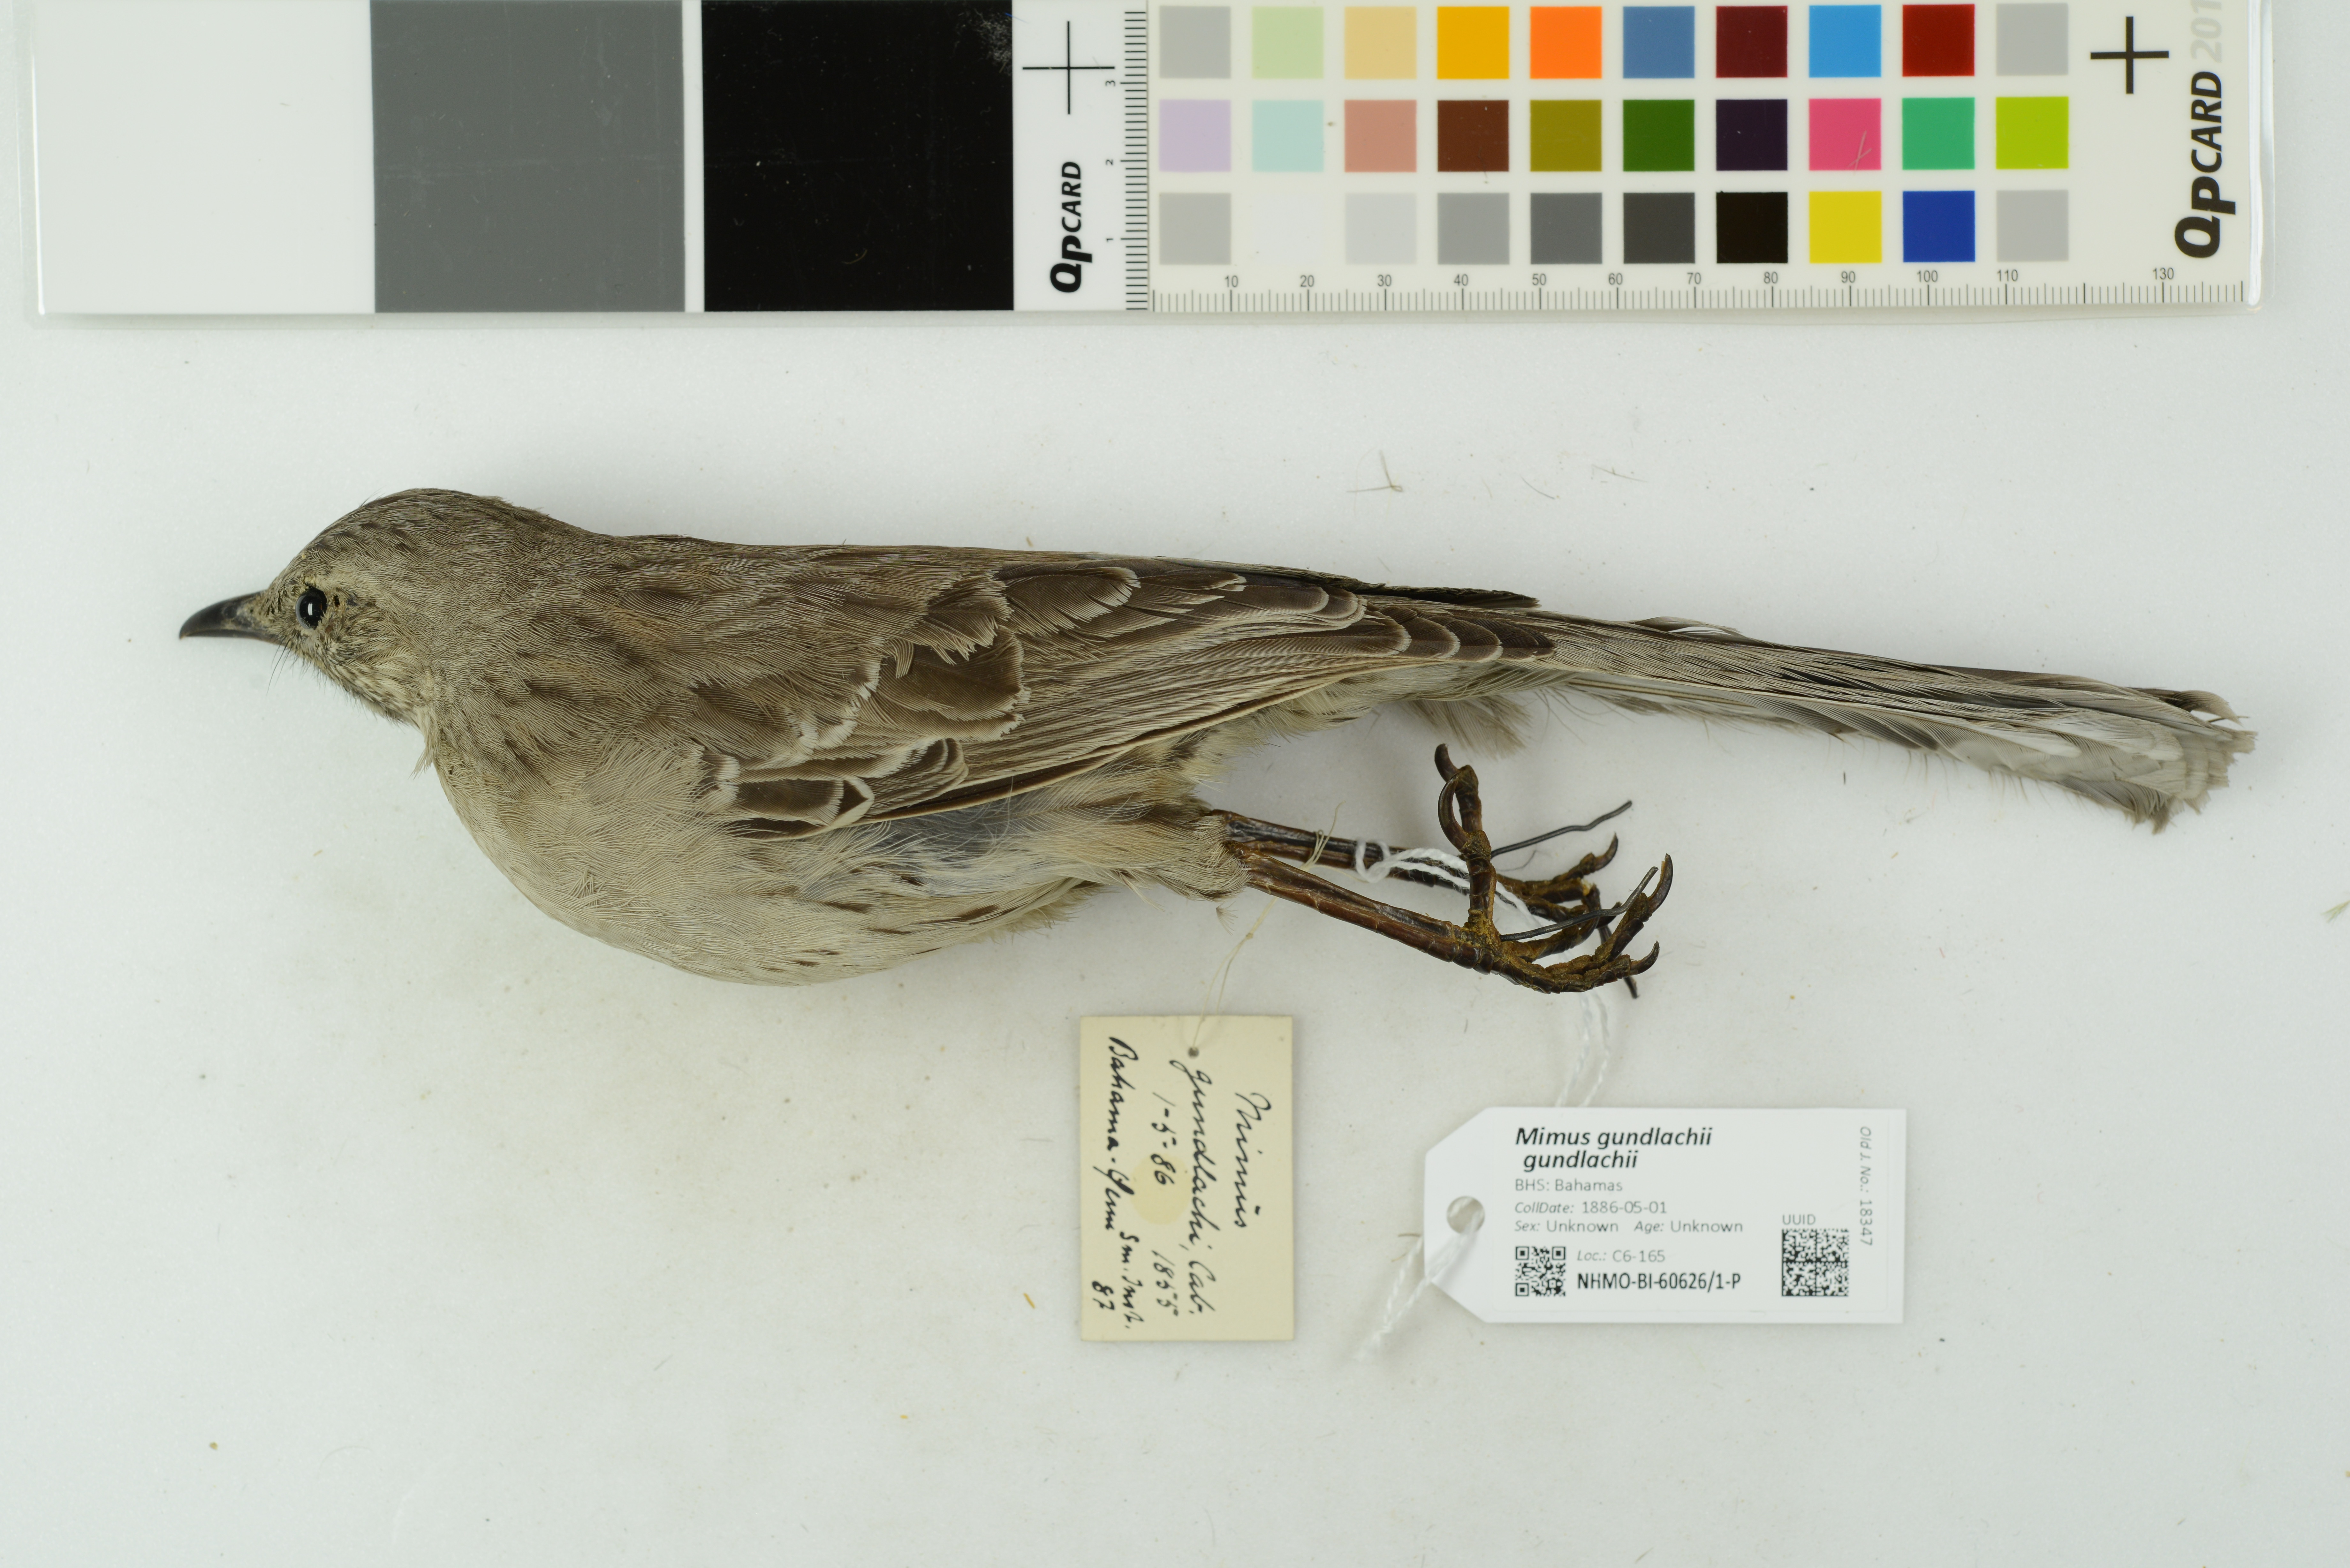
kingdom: Animalia
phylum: Chordata
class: Aves
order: Passeriformes
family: Mimidae
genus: Mimus
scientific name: Mimus gundlachii
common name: Bahama mockingbird
